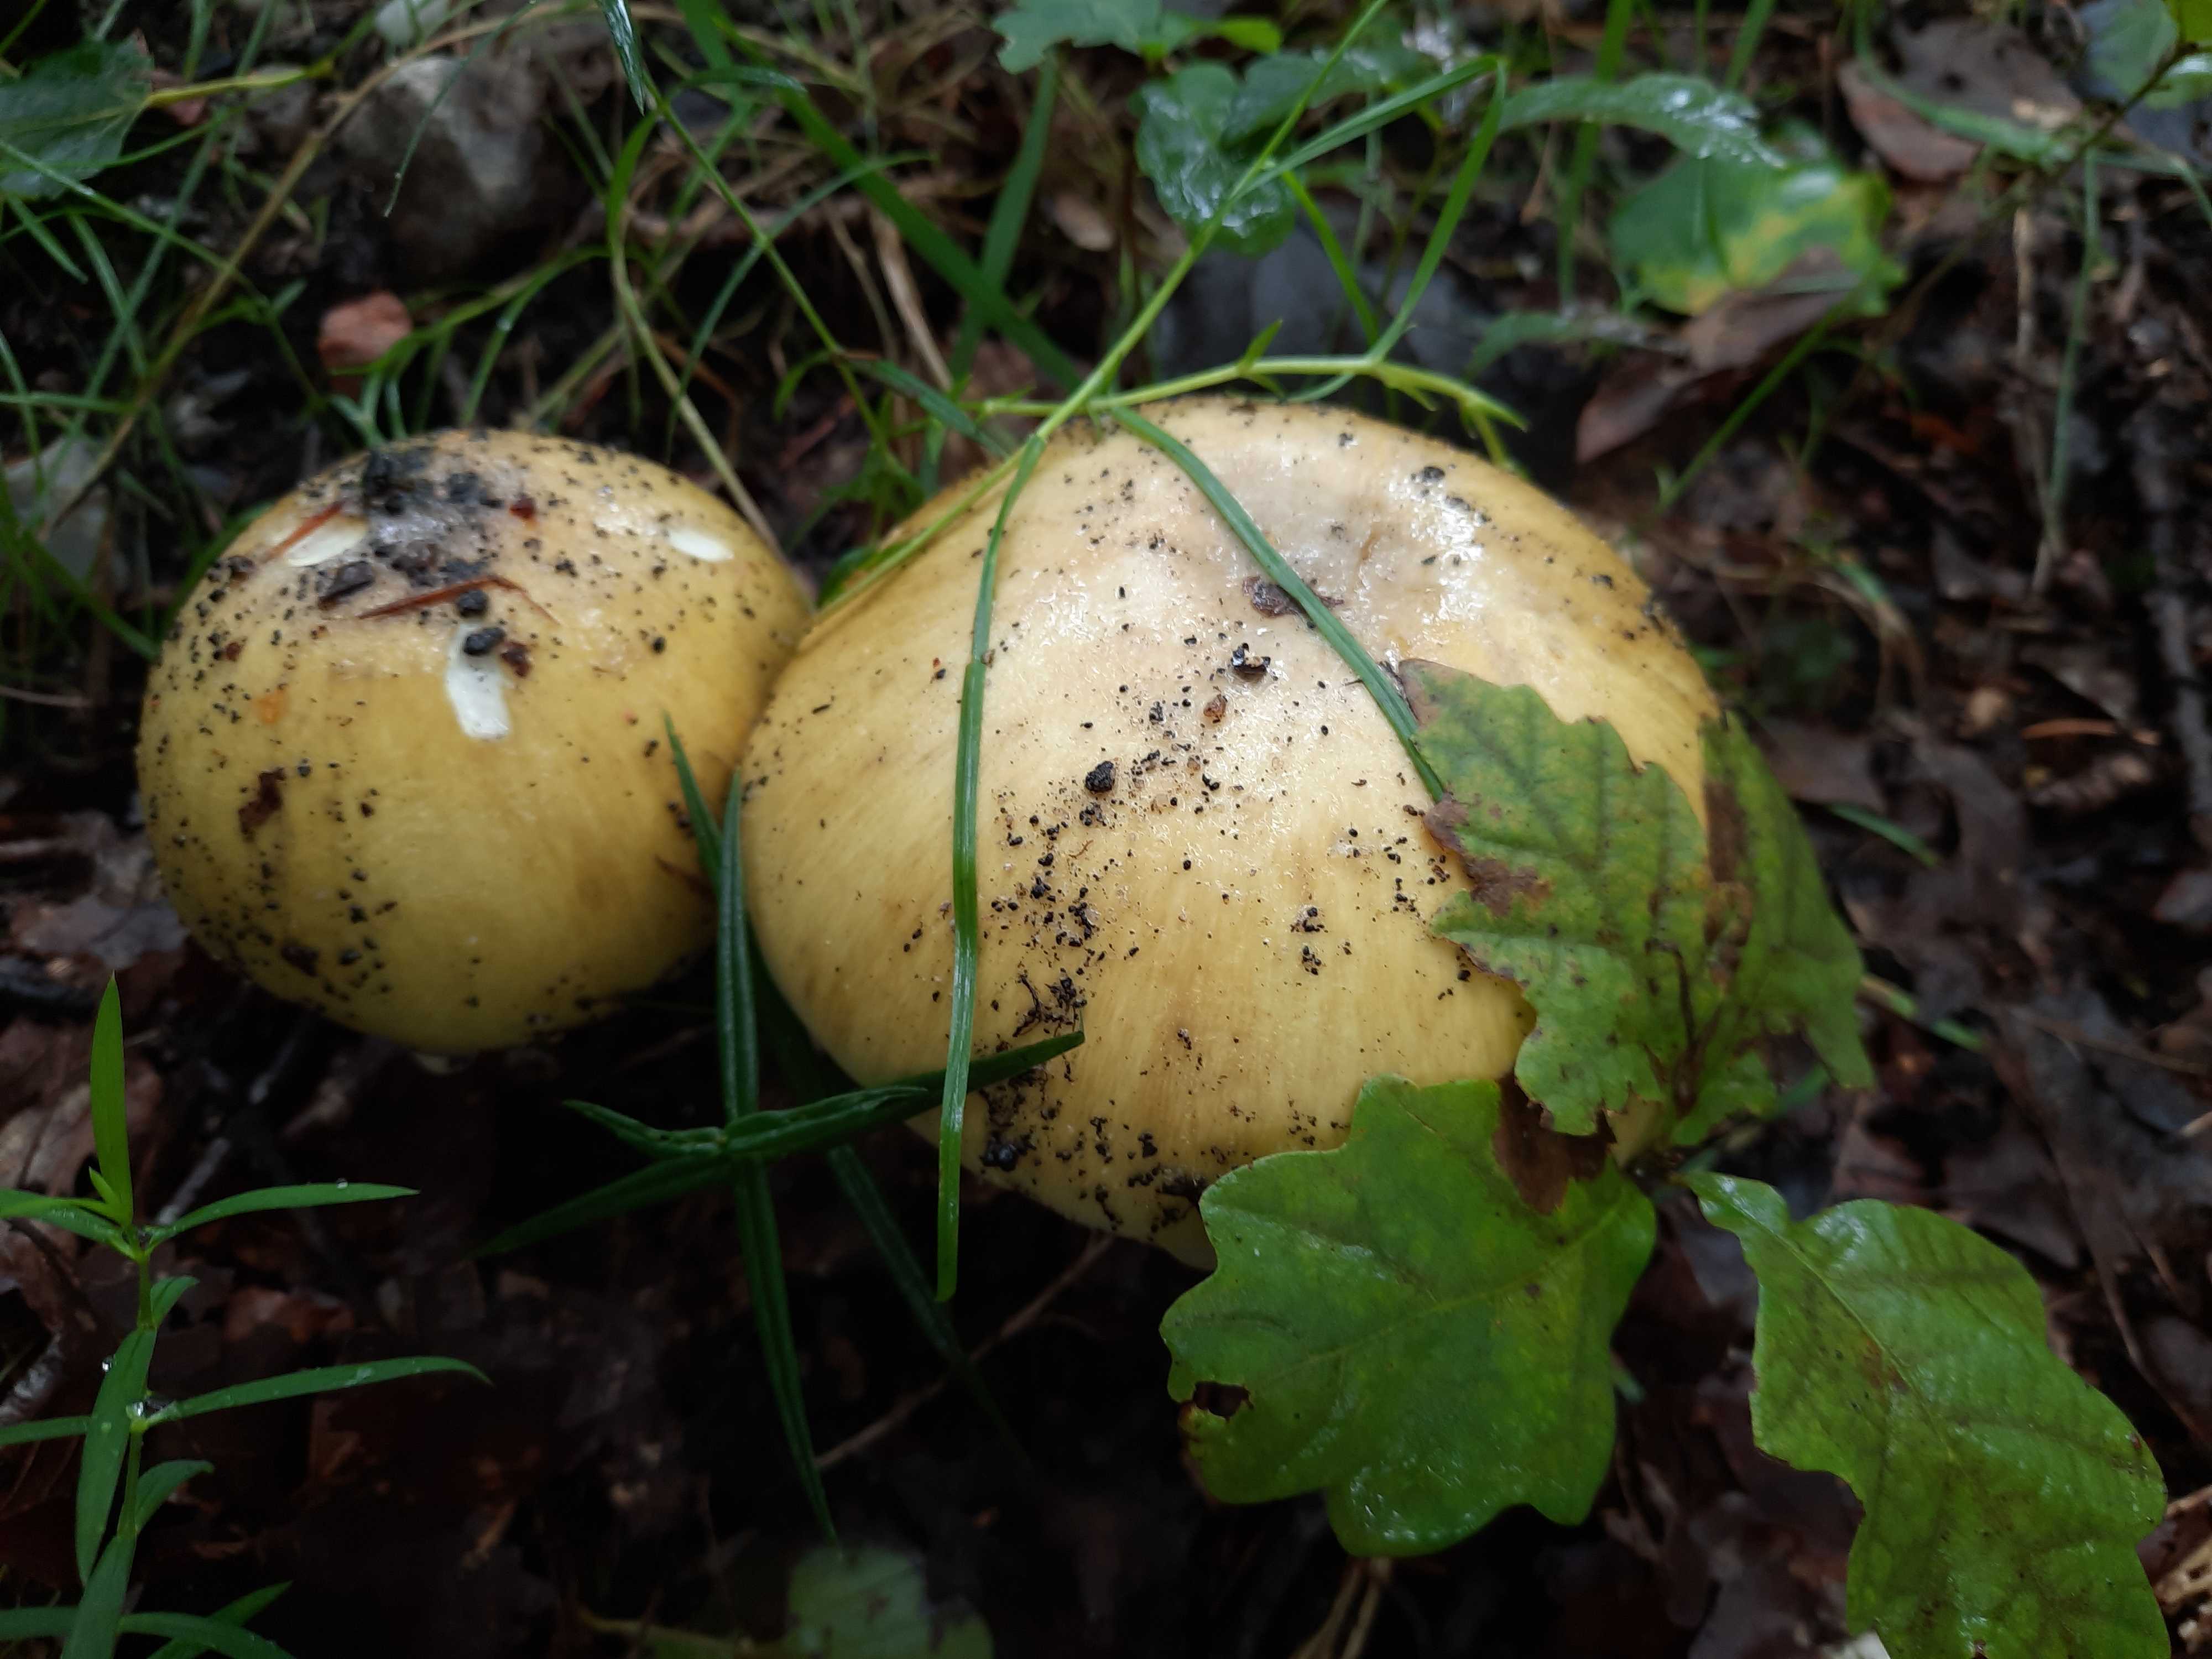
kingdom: Fungi
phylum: Basidiomycota
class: Agaricomycetes
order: Agaricales
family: Amanitaceae
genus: Amanita
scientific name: Amanita phalloides
